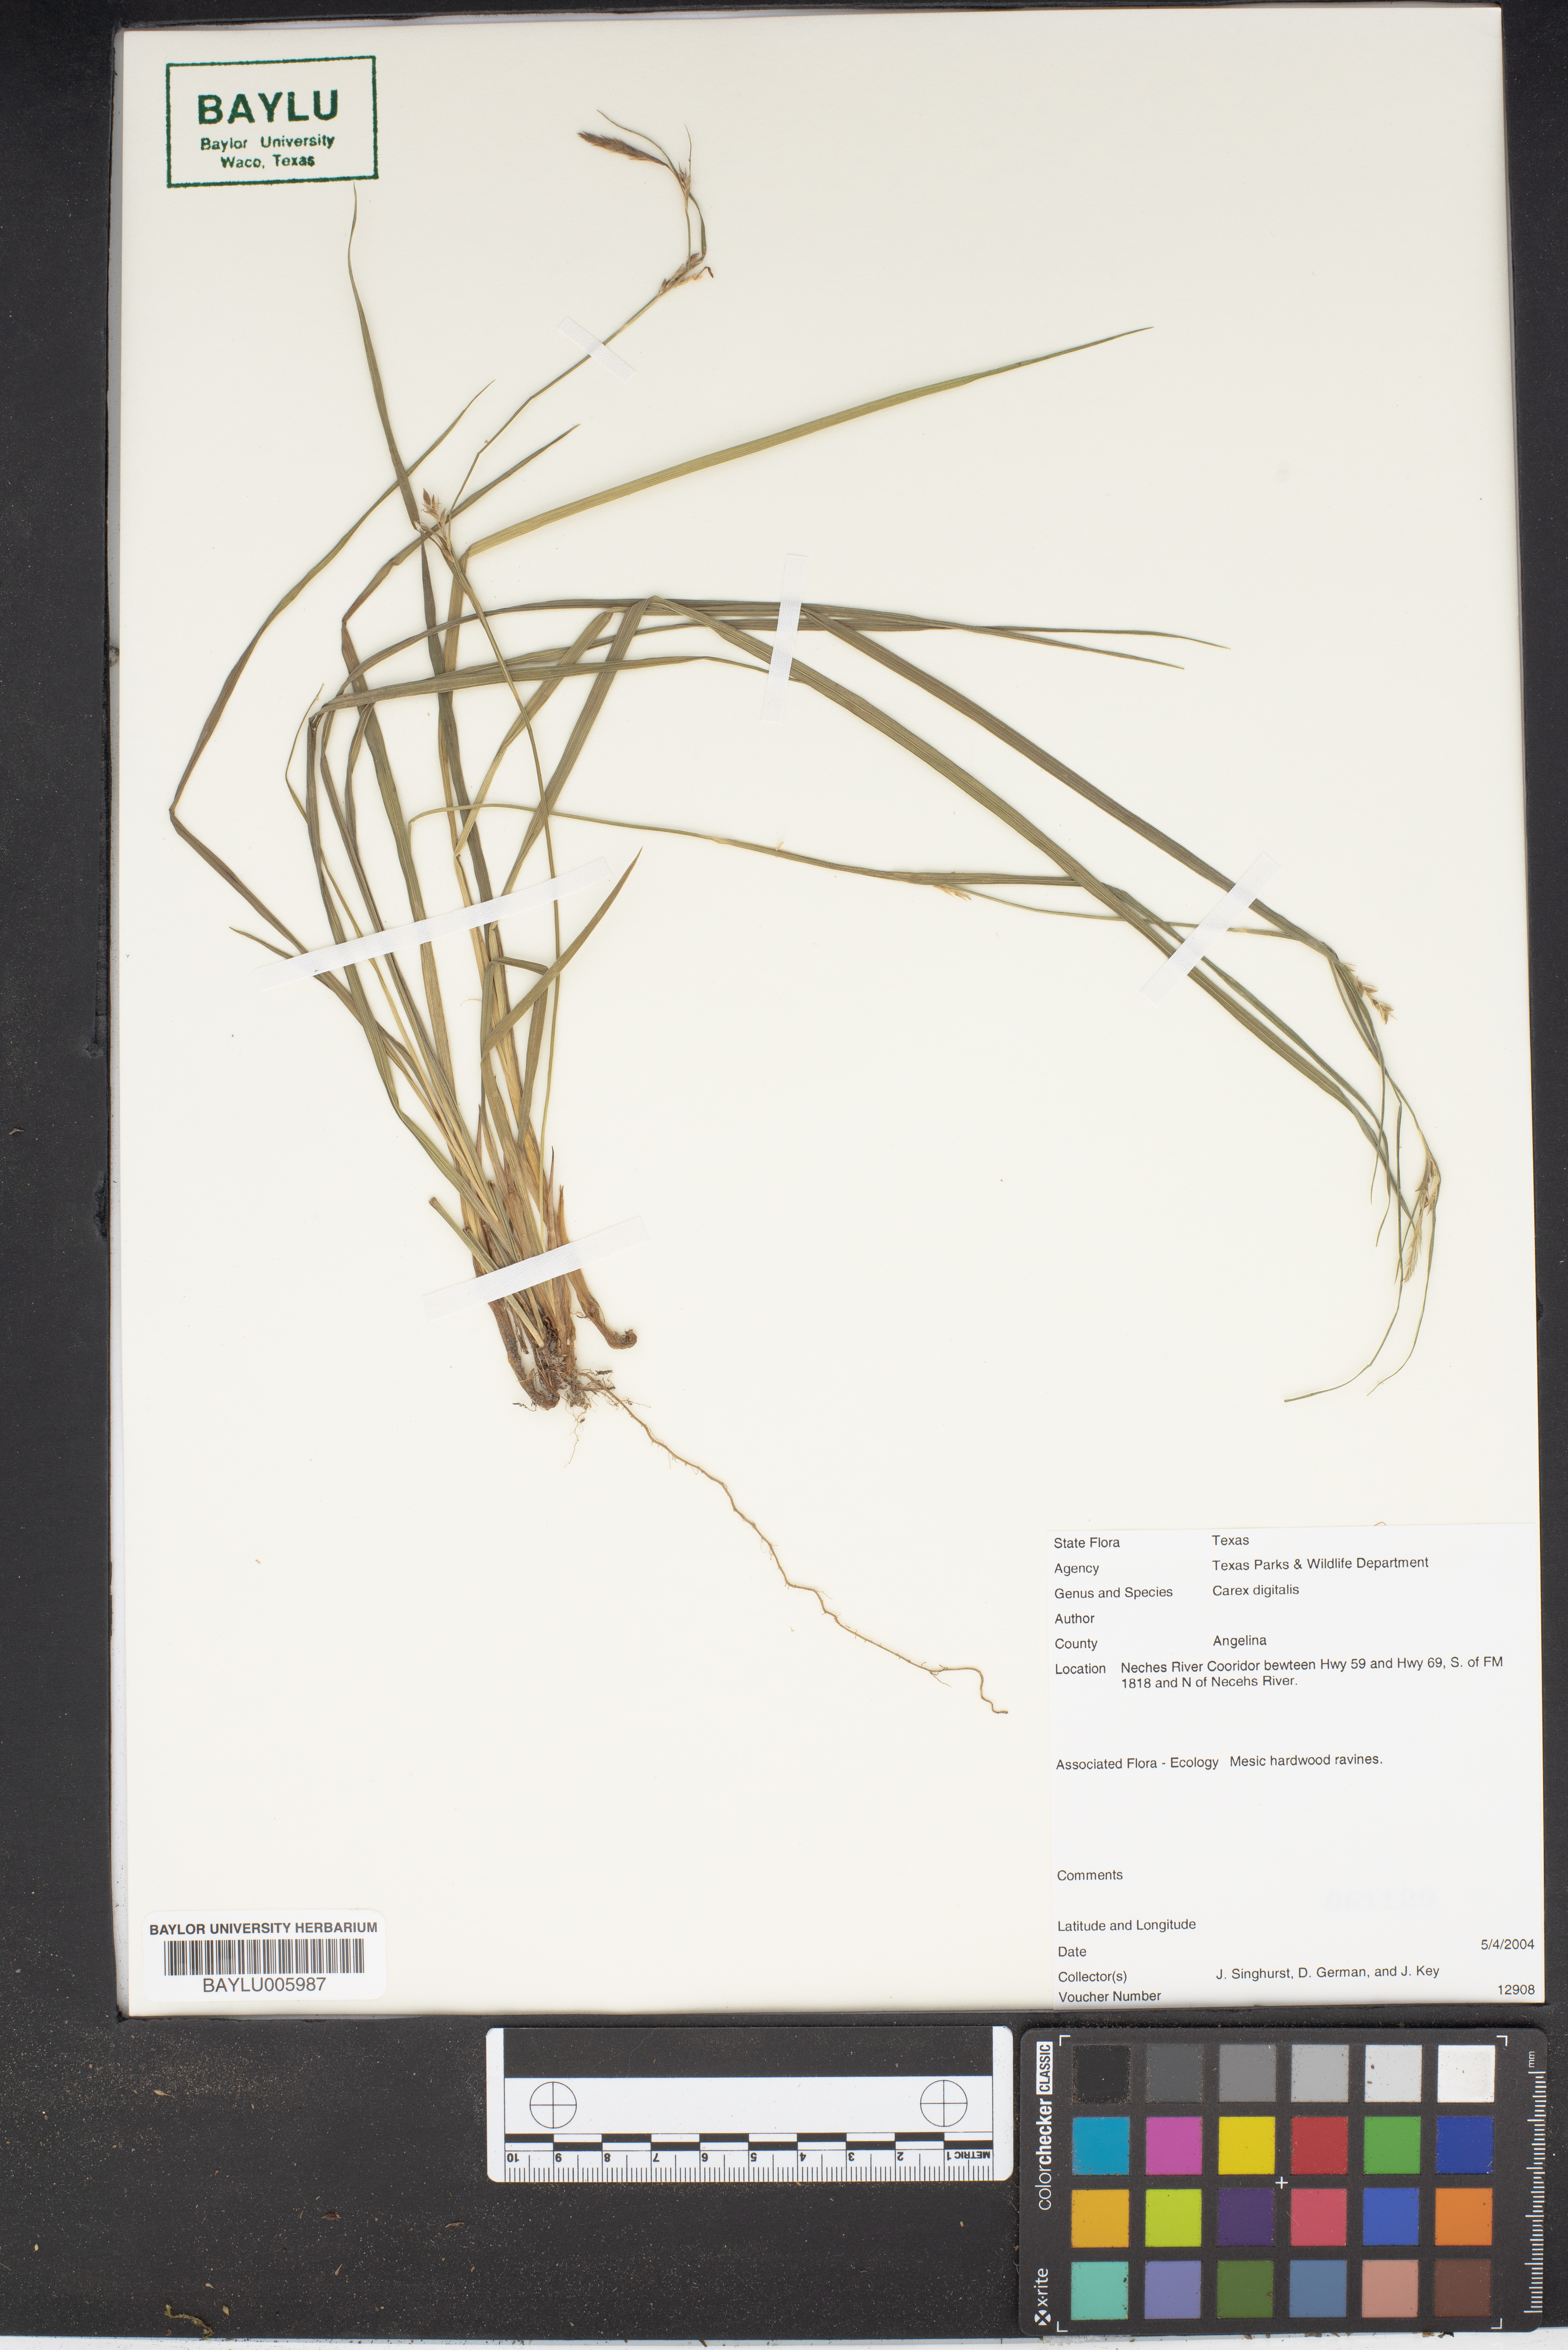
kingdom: Plantae
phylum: Tracheophyta
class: Liliopsida
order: Poales
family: Cyperaceae
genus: Carex
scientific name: Carex digitalis
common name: Slender wood sedge
